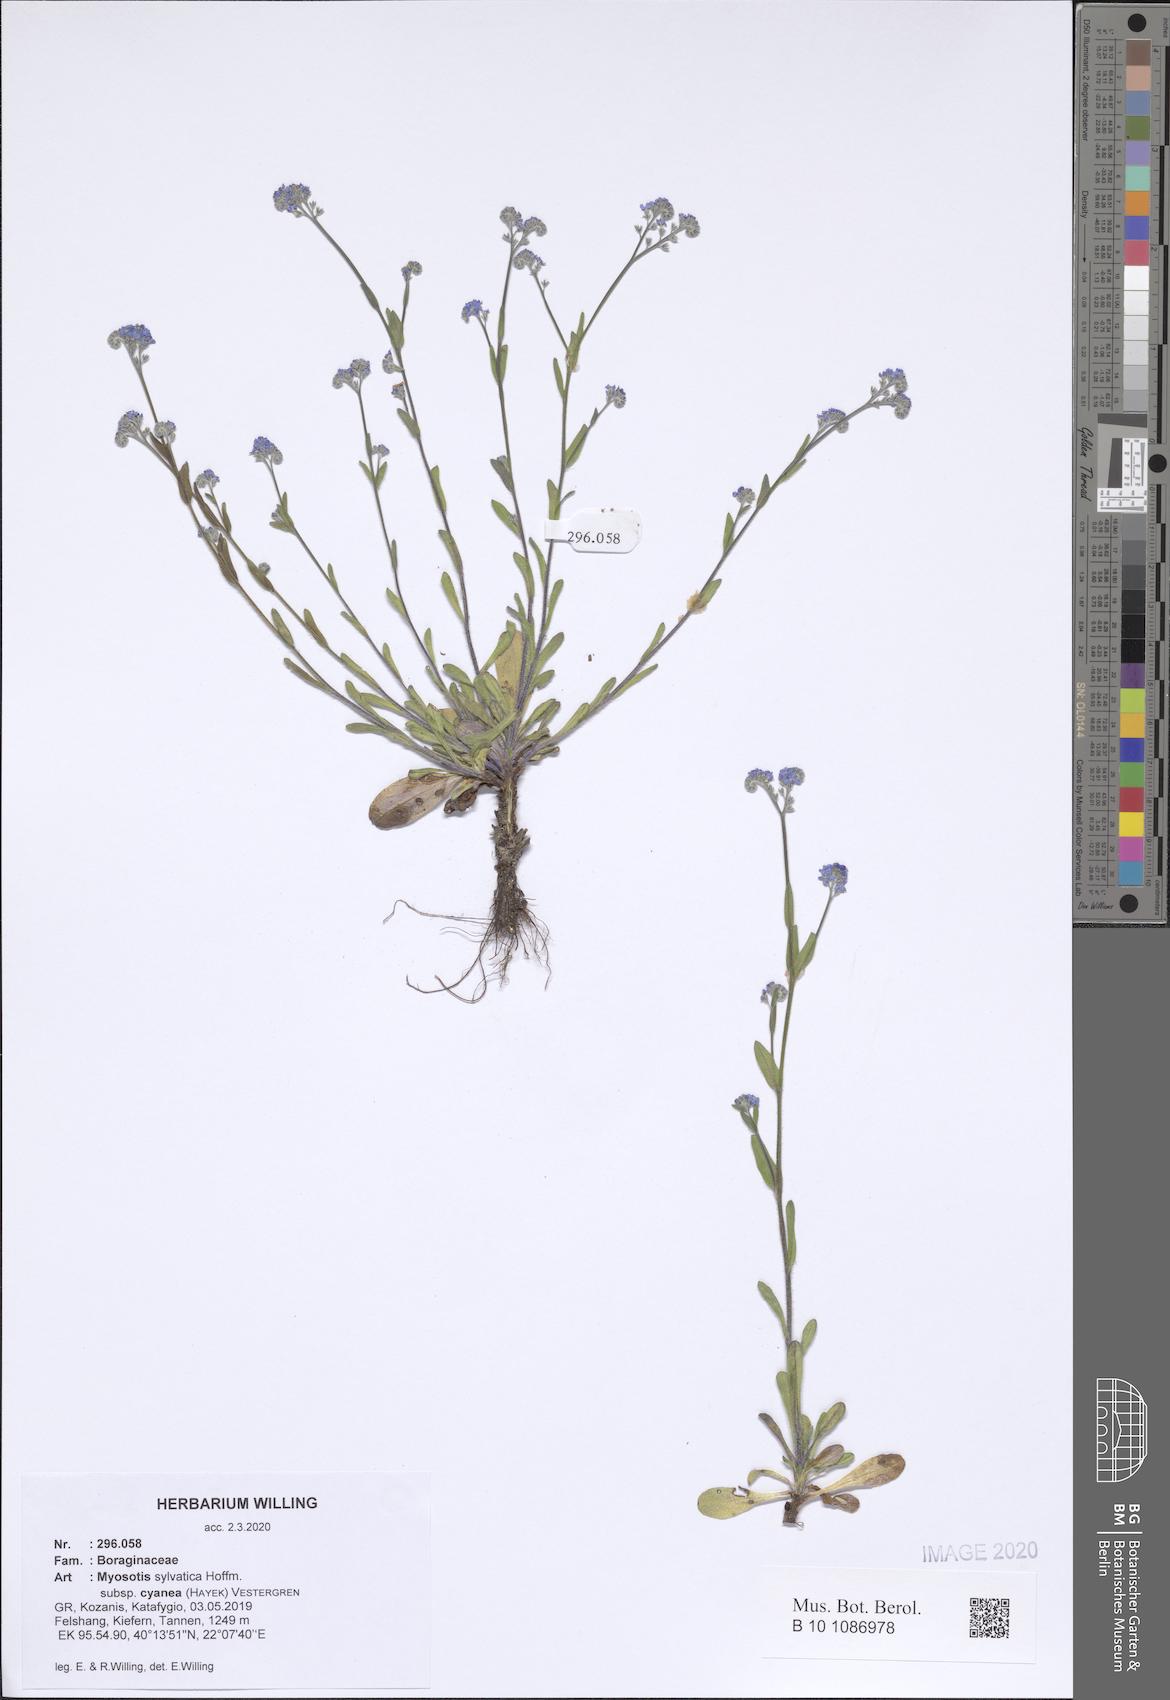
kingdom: Plantae
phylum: Tracheophyta
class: Magnoliopsida
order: Boraginales
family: Boraginaceae
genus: Myosotis
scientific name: Myosotis sylvatica
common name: Wood forget-me-not
